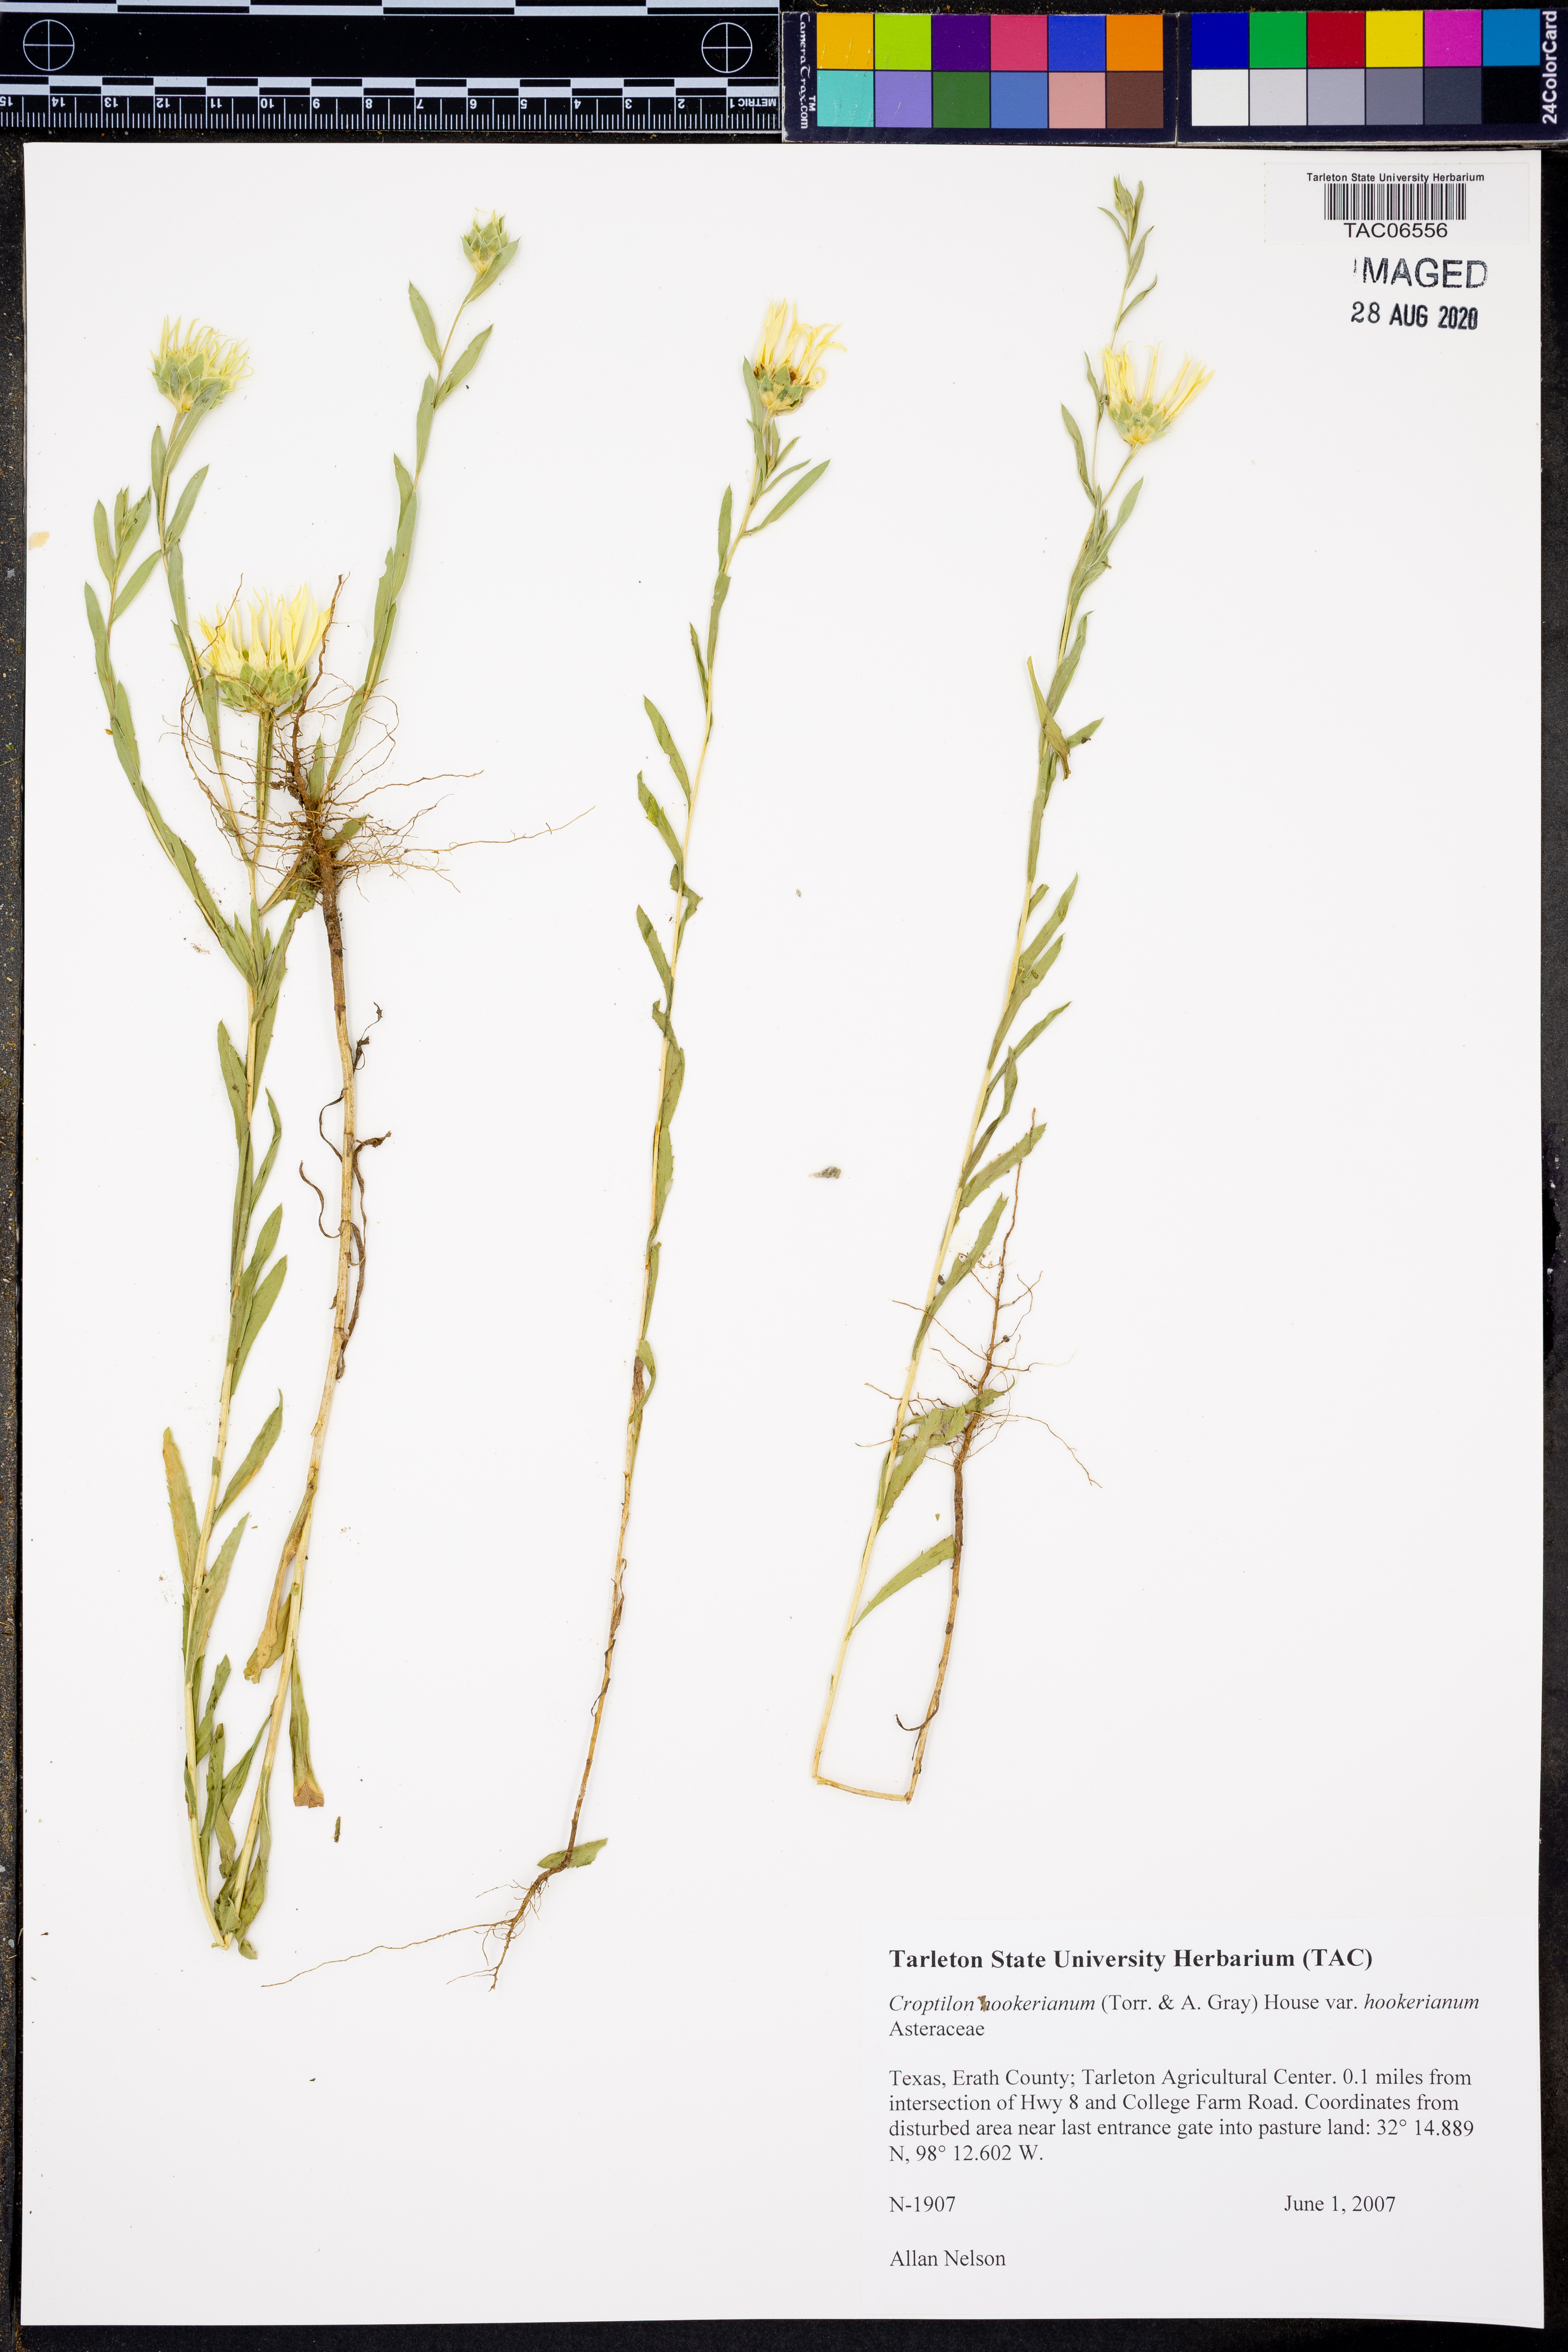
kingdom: Plantae
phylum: Tracheophyta
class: Magnoliopsida
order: Asterales
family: Asteraceae
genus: Croptilon
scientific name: Croptilon hookerianum
